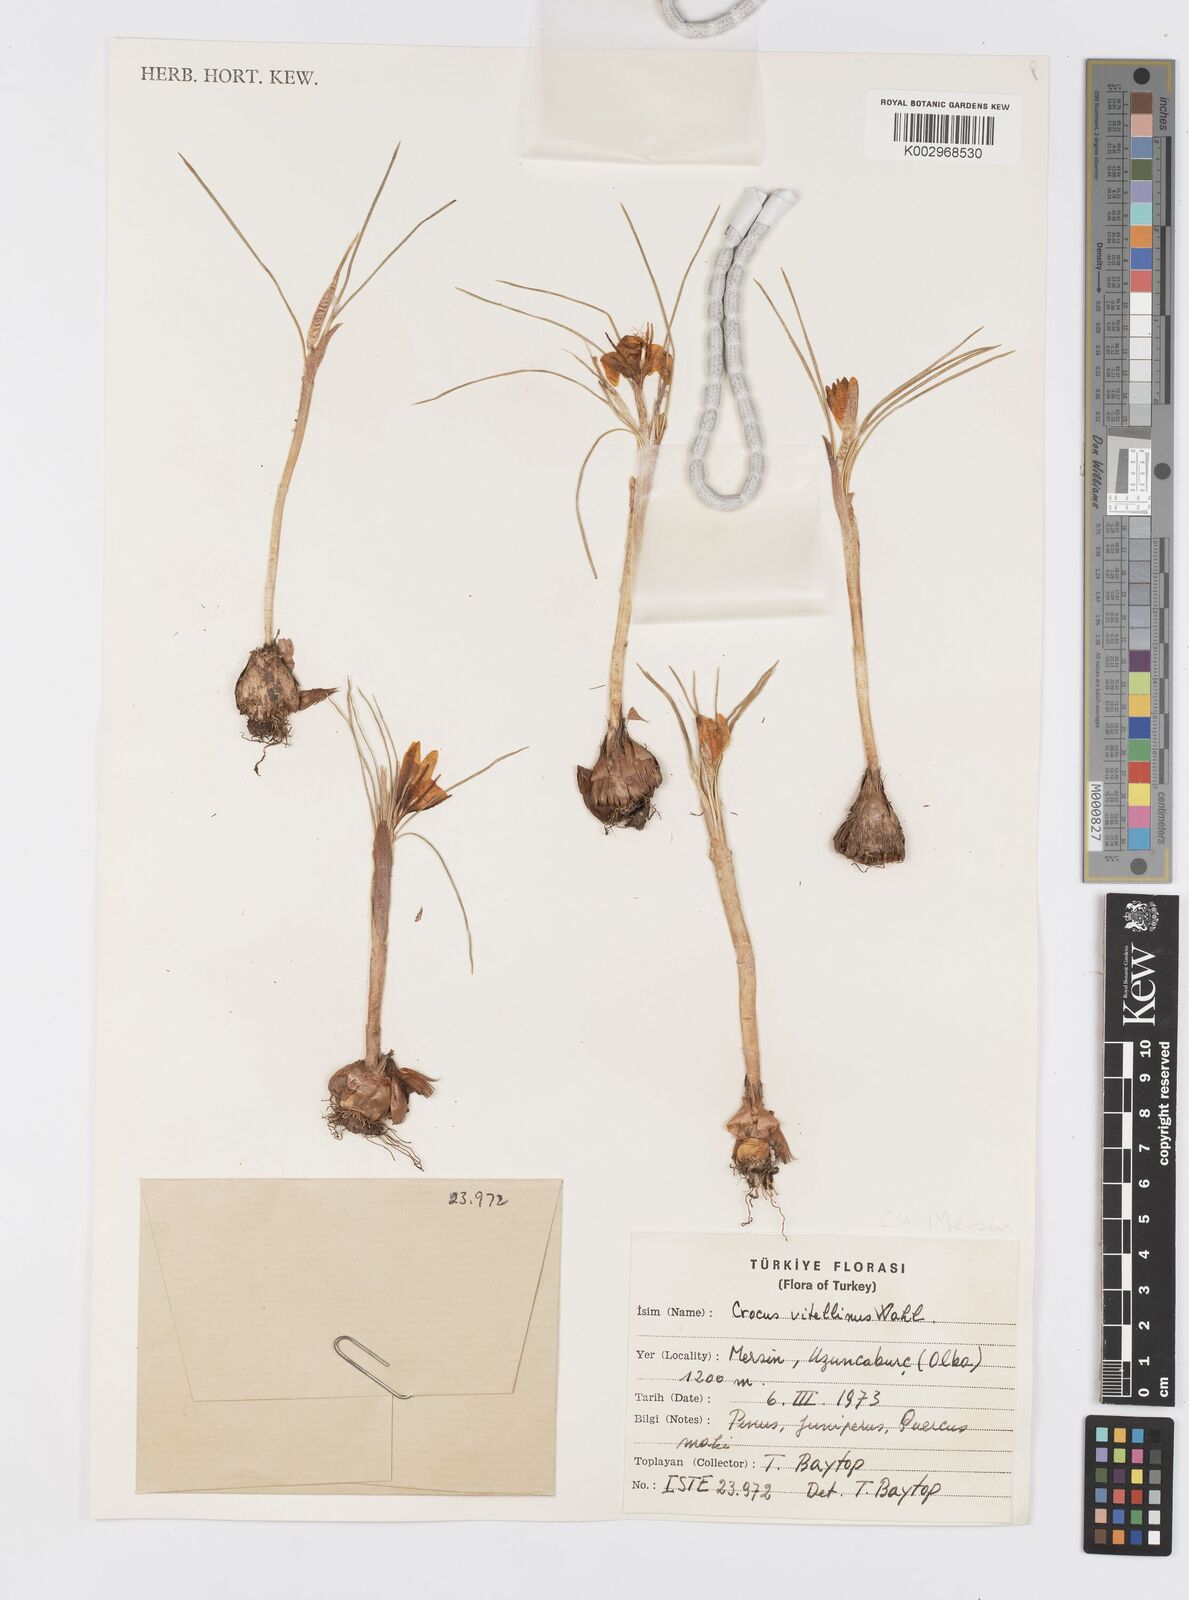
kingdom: Plantae
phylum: Tracheophyta
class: Liliopsida
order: Asparagales
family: Iridaceae
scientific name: Iridaceae
